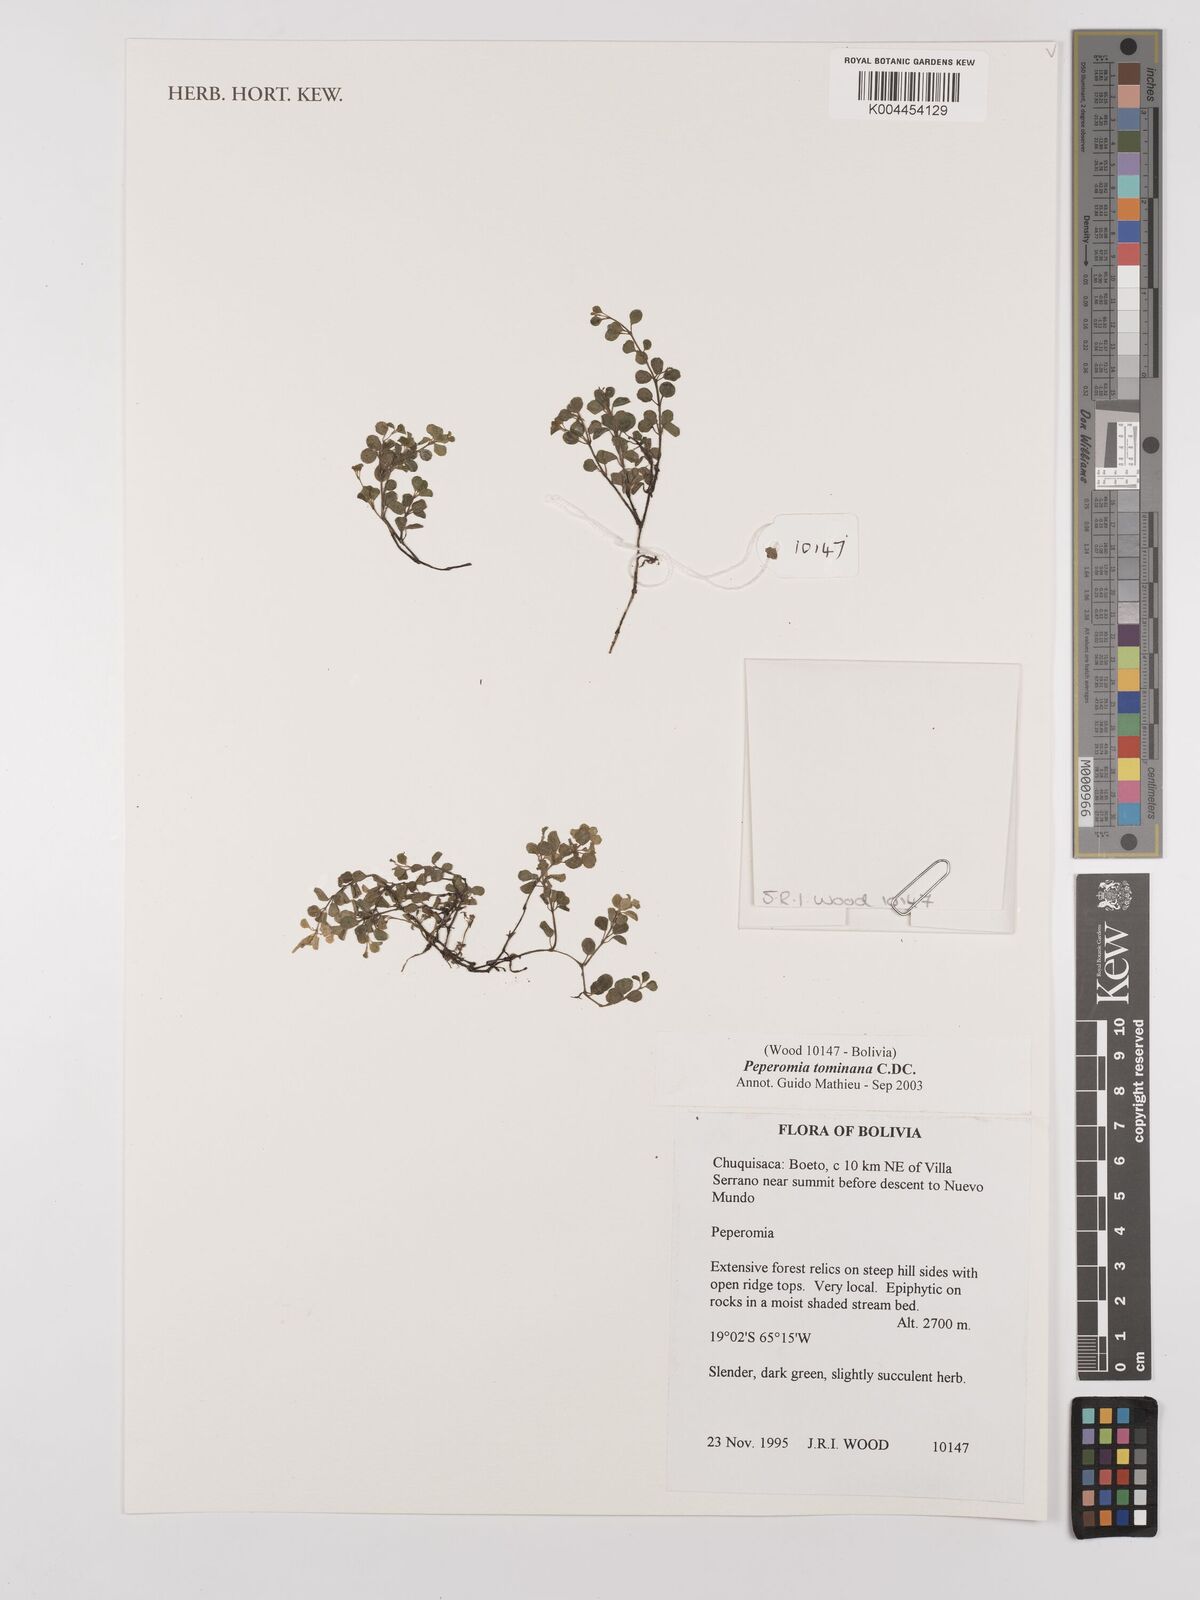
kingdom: Plantae
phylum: Tracheophyta
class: Magnoliopsida
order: Piperales
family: Piperaceae
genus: Peperomia
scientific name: Peperomia tominana
